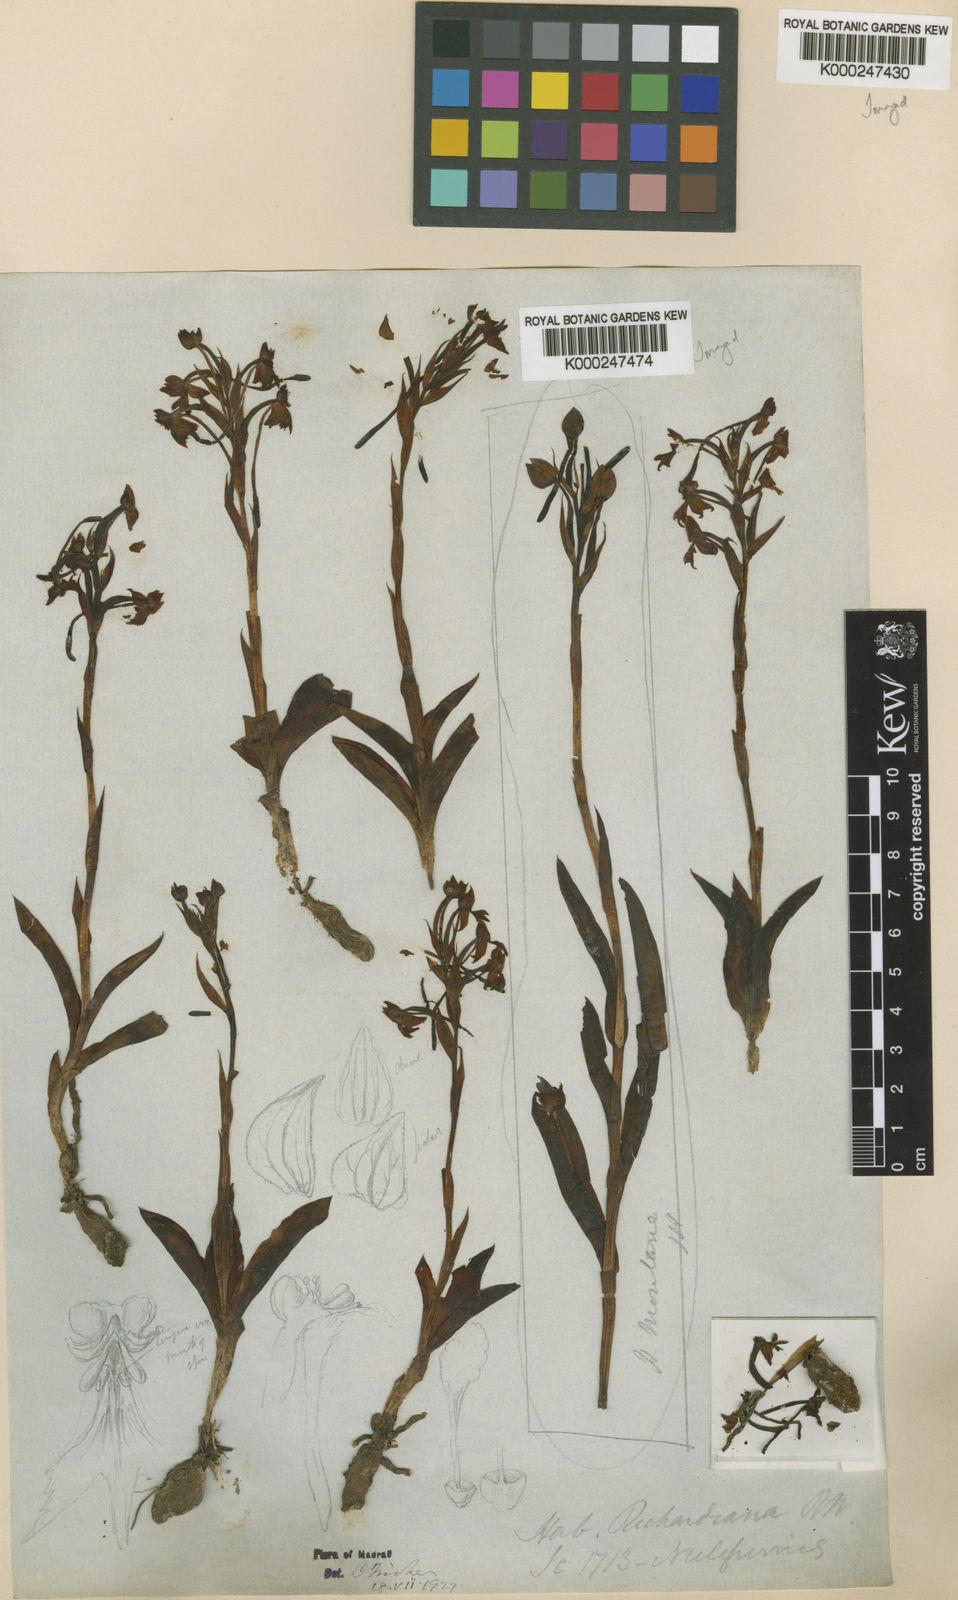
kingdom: Plantae
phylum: Tracheophyta
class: Liliopsida
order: Asparagales
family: Orchidaceae
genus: Habenaria
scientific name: Habenaria richardiana
